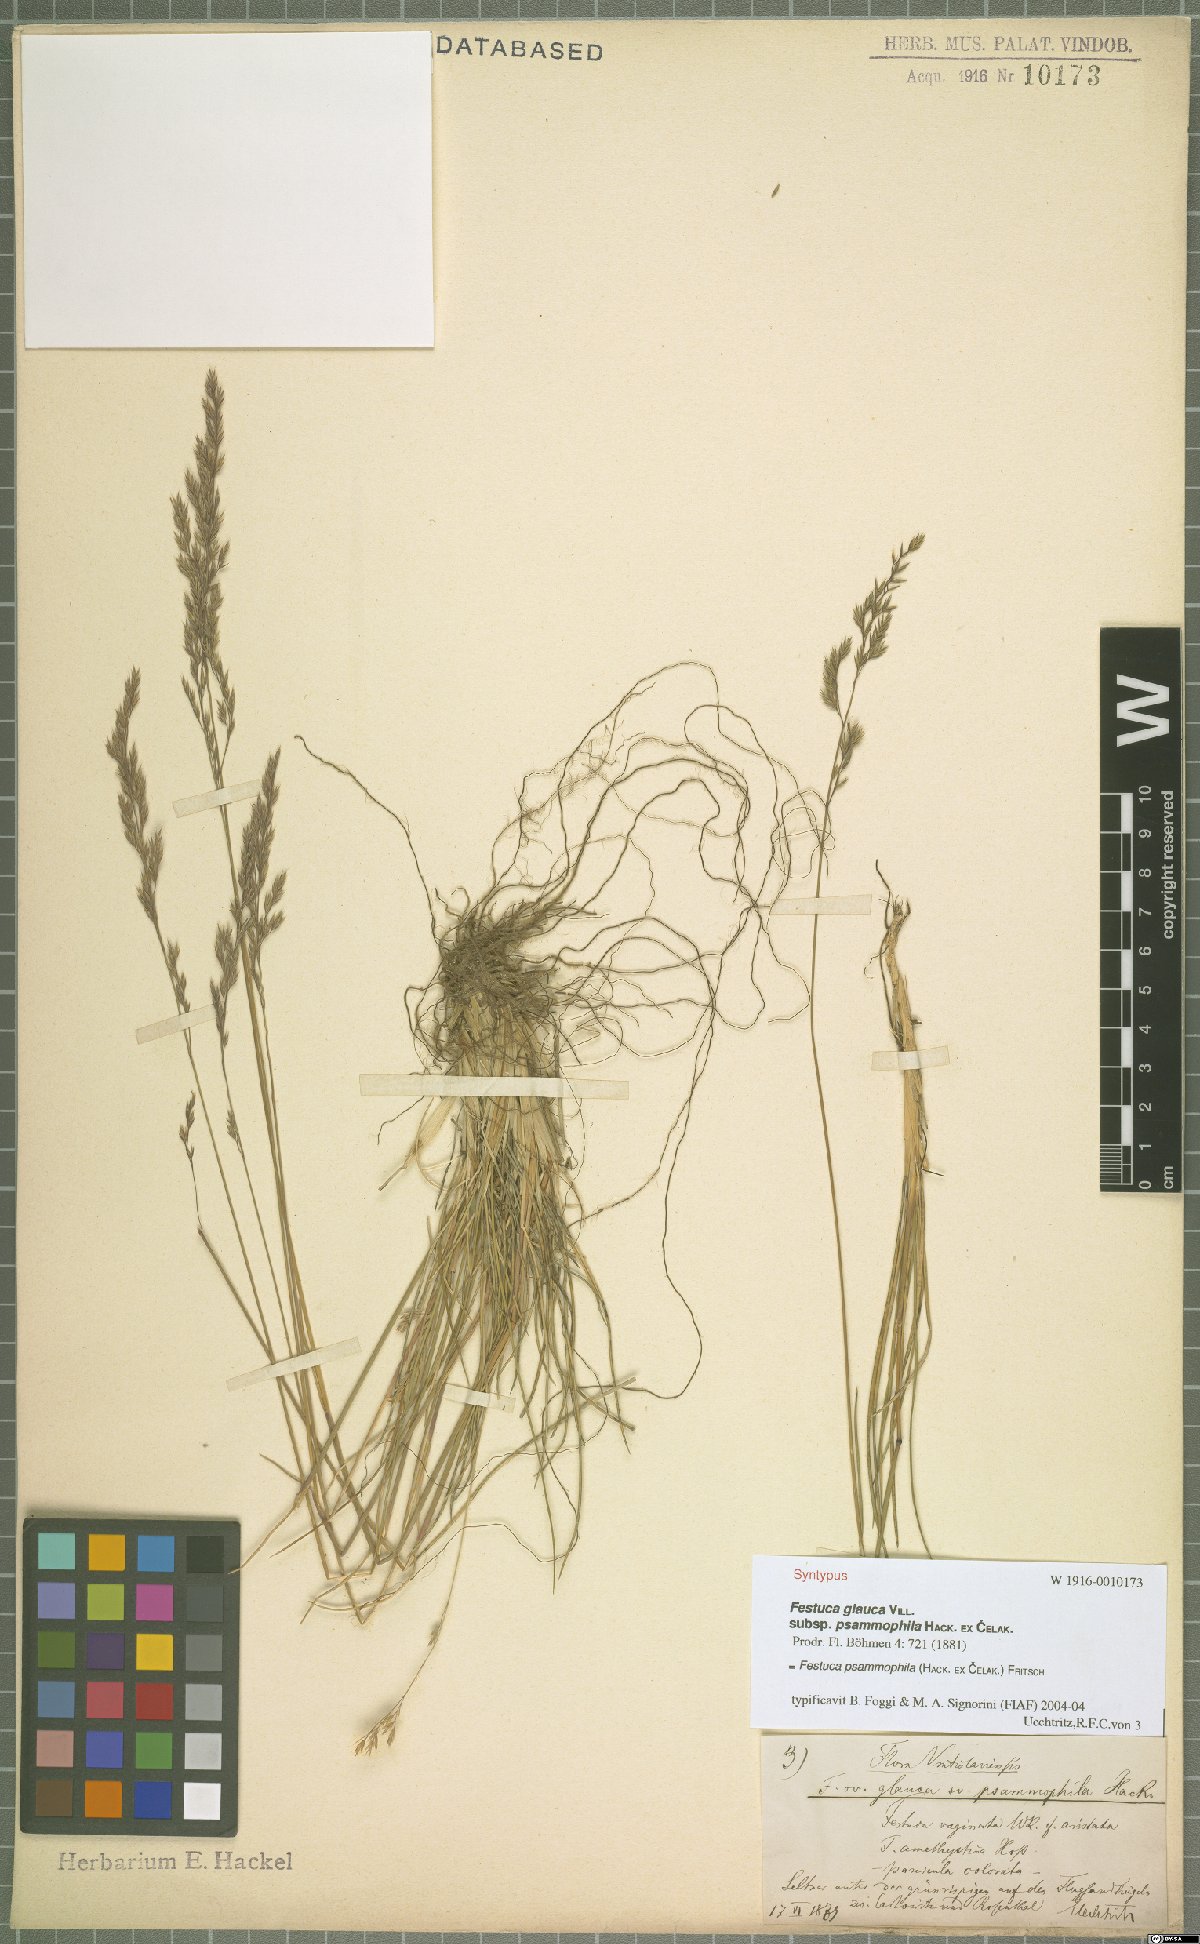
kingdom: Plantae
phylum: Tracheophyta
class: Liliopsida
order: Poales
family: Poaceae
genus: Festuca
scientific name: Festuca psammophila
